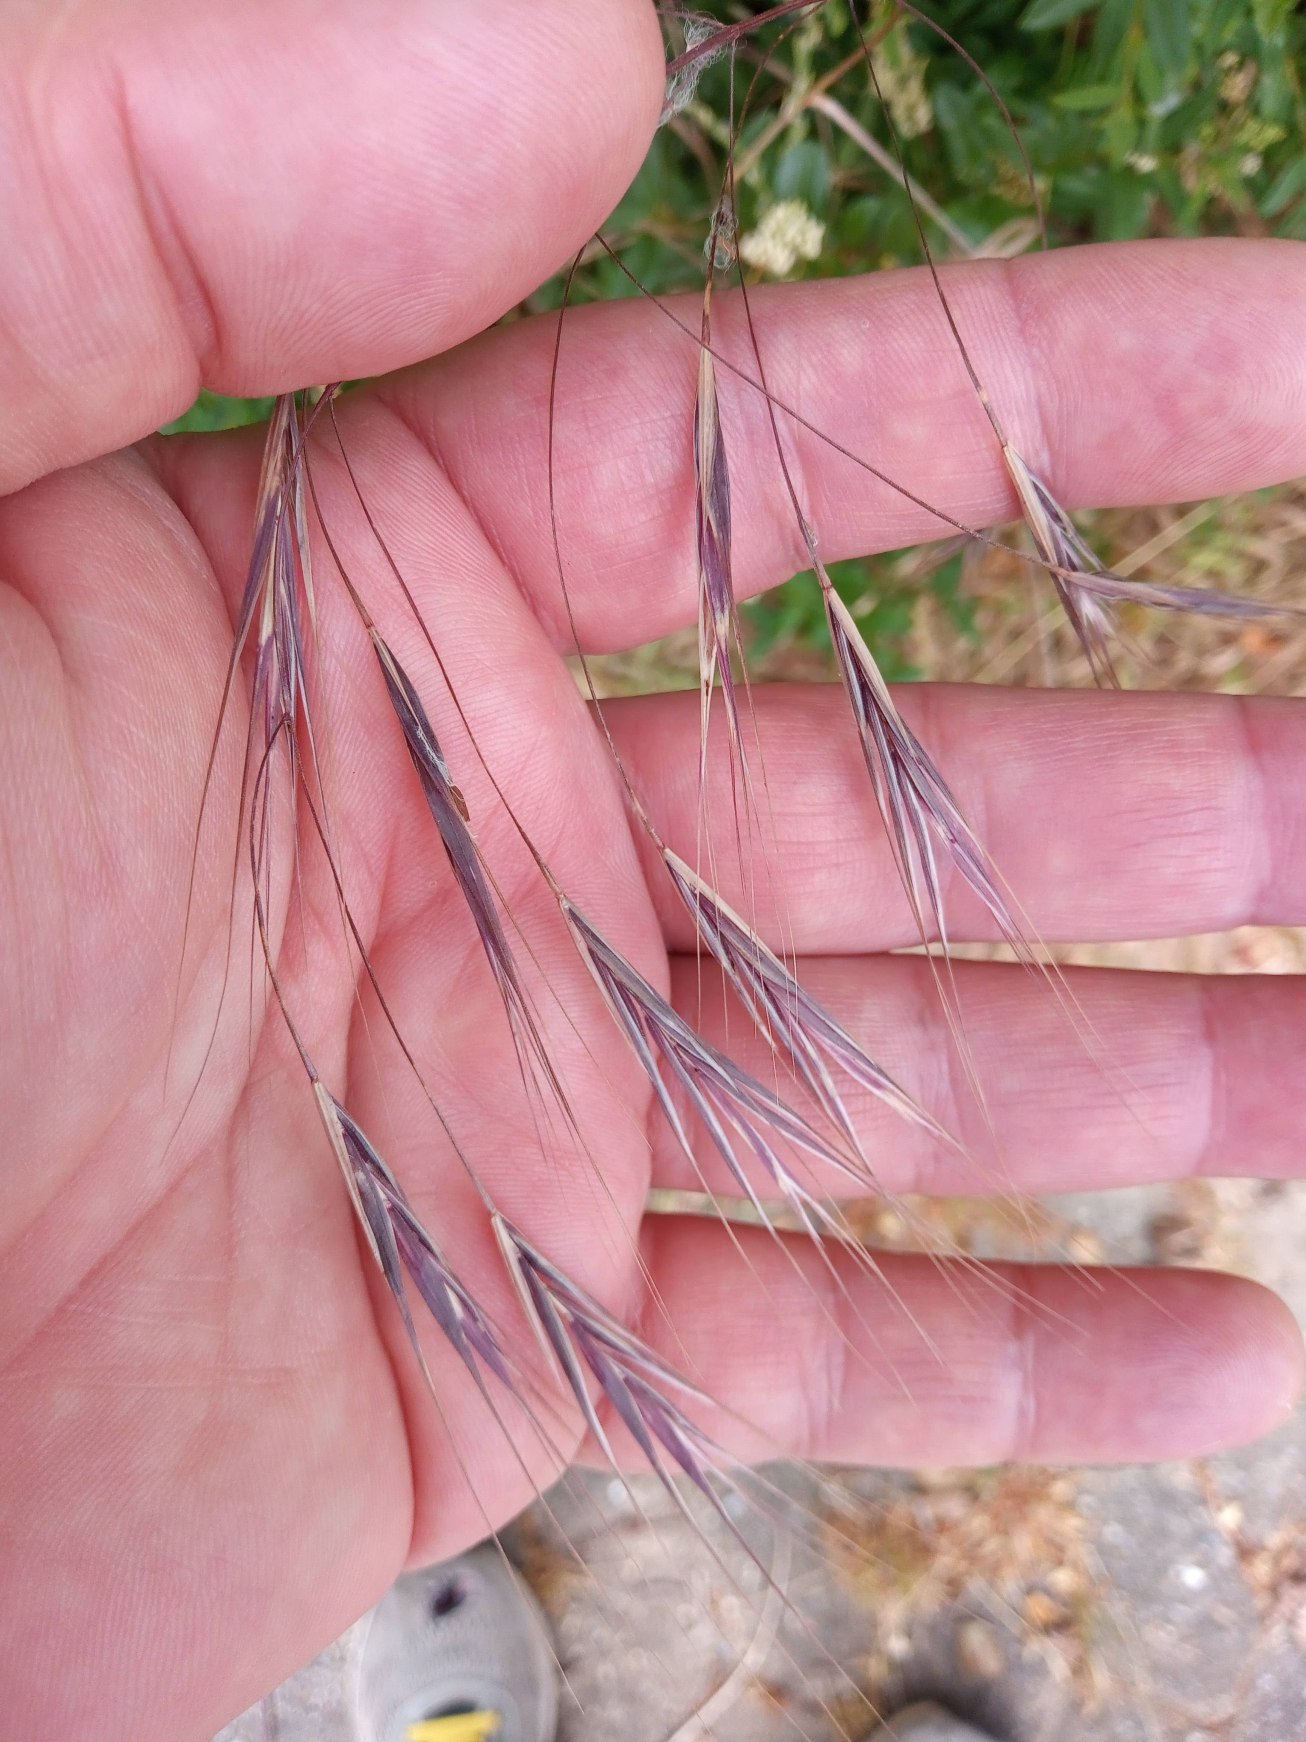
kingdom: Plantae
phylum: Tracheophyta
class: Liliopsida
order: Poales
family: Poaceae
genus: Bromus
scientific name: Bromus sterilis
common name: Gold hejre
